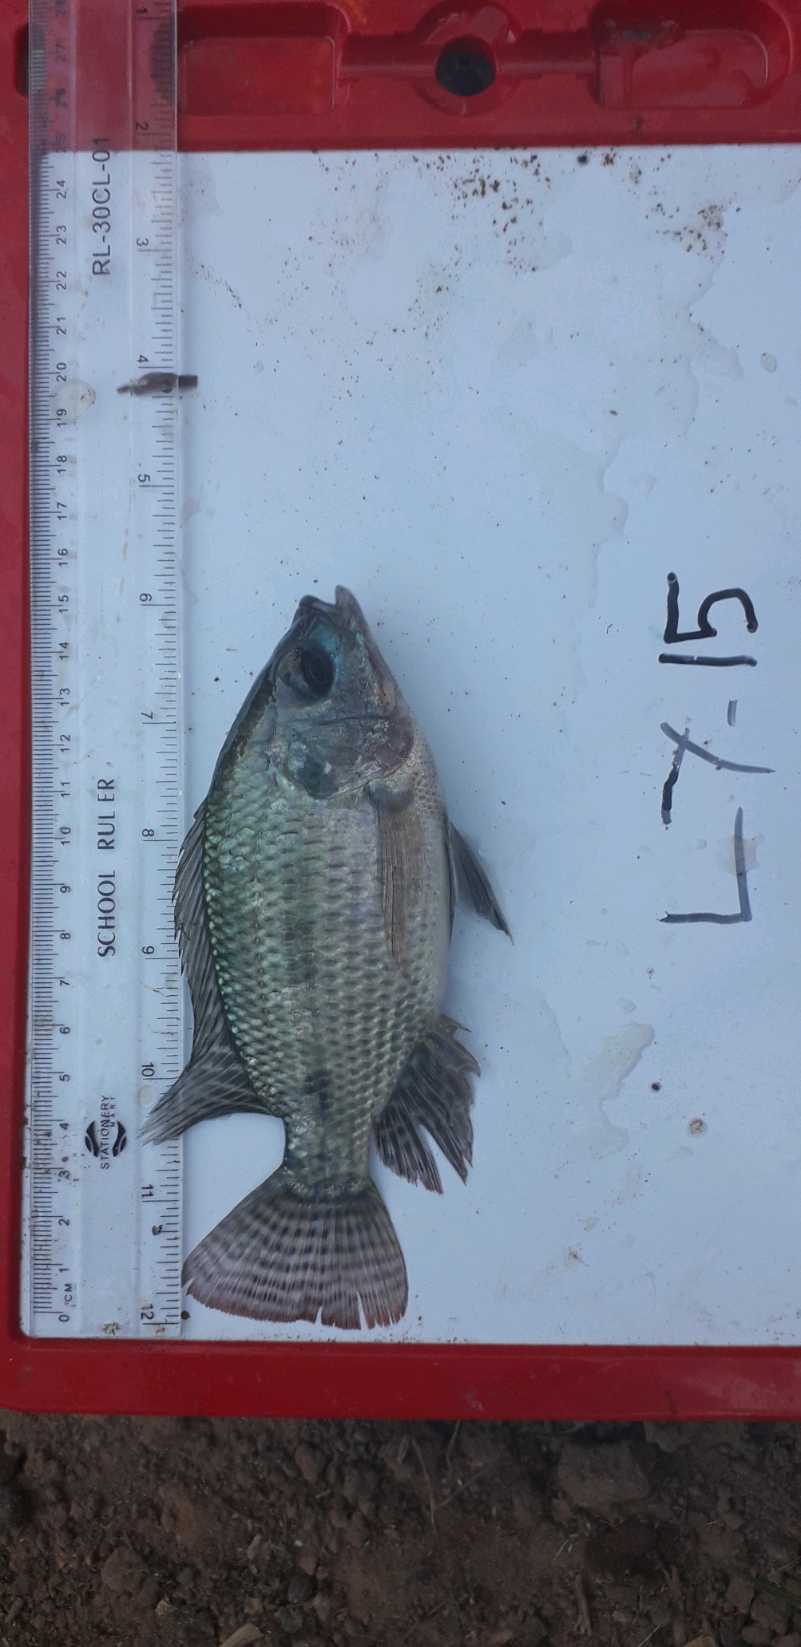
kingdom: Animalia
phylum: Chordata
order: Perciformes
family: Cichlidae
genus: Oreochromis
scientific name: Oreochromis niloticus
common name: Nile tilapia
